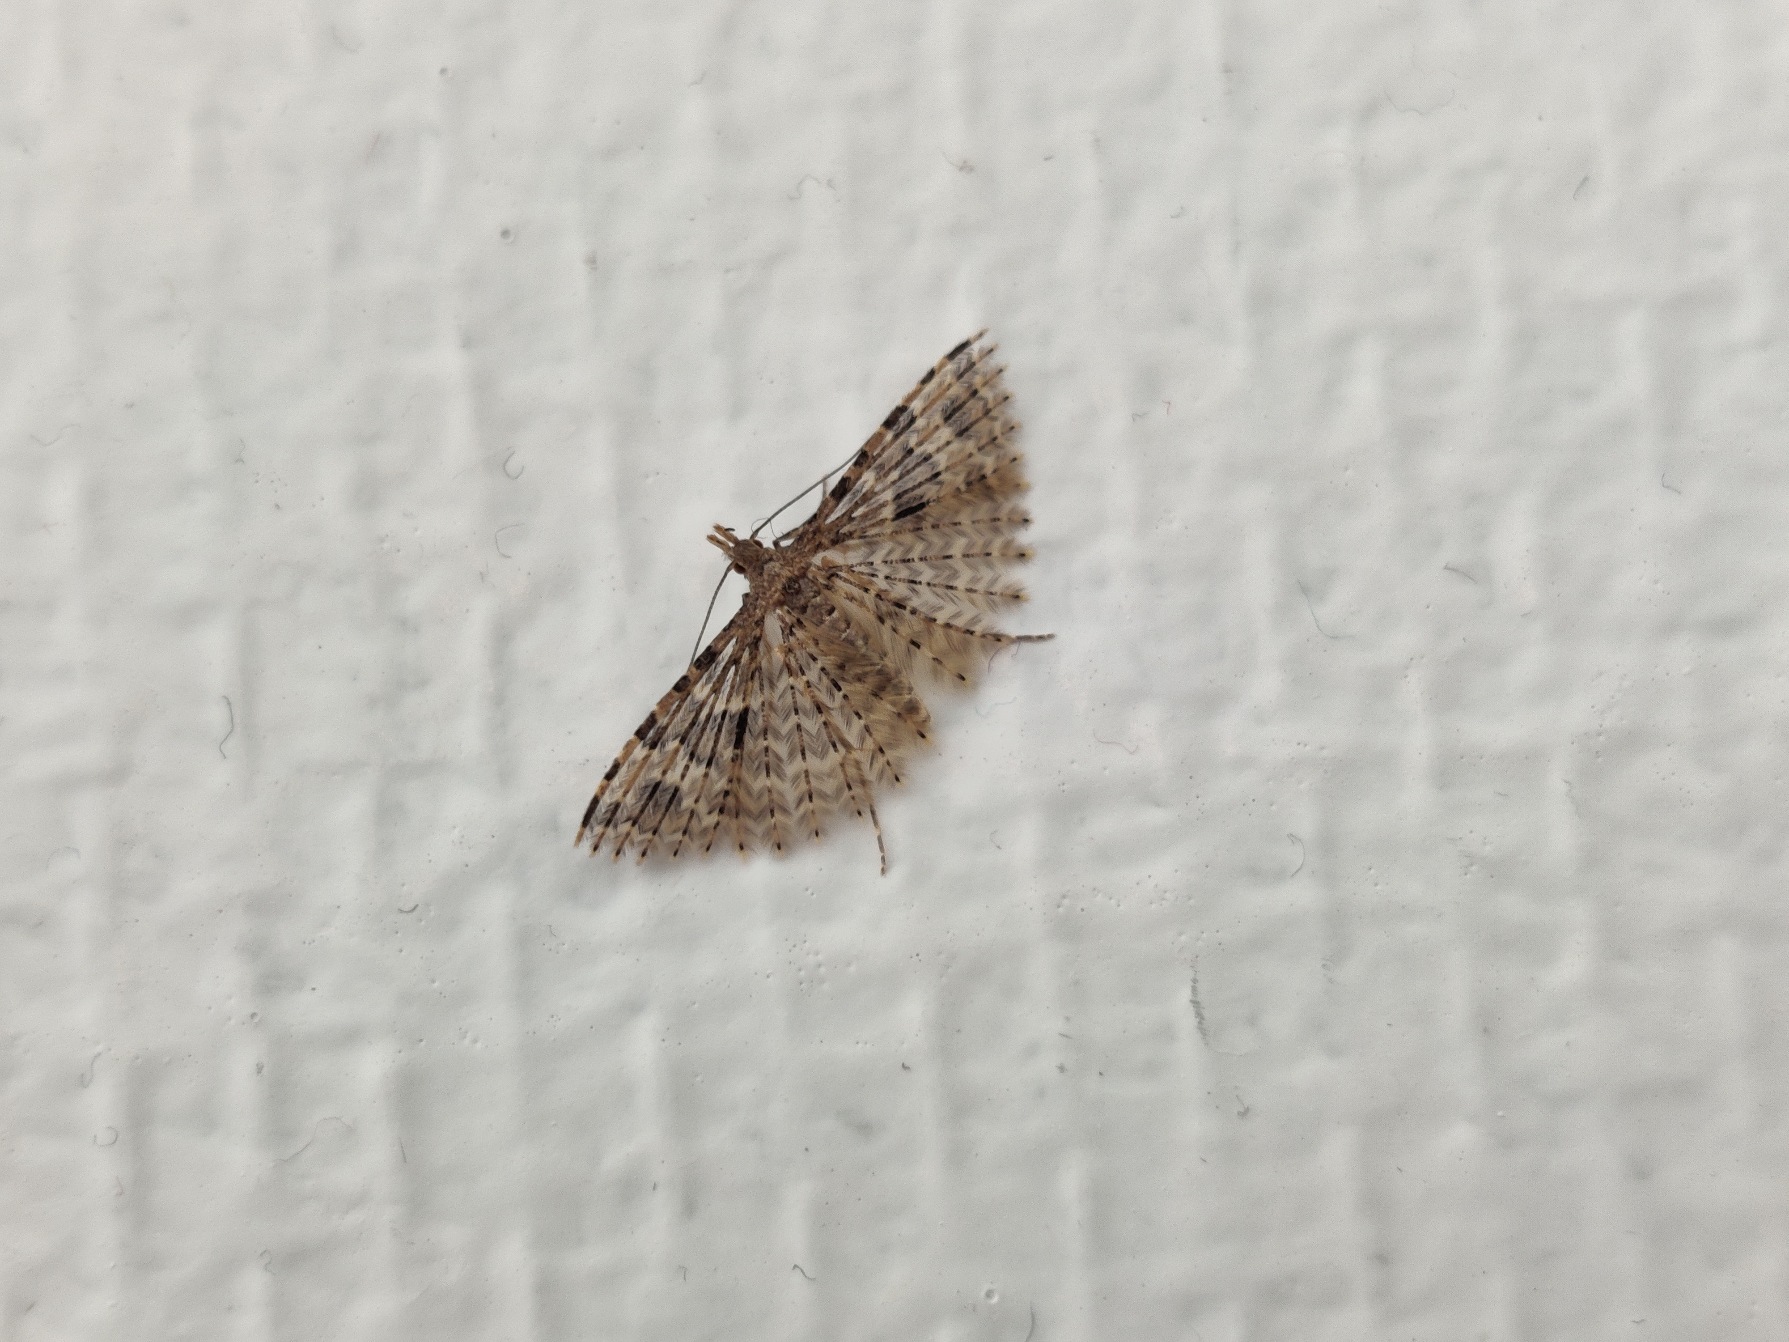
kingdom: Animalia
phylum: Arthropoda
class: Insecta
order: Lepidoptera
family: Alucitidae
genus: Alucita
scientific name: Alucita hexadactyla
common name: Kaprifoliefjermøl
